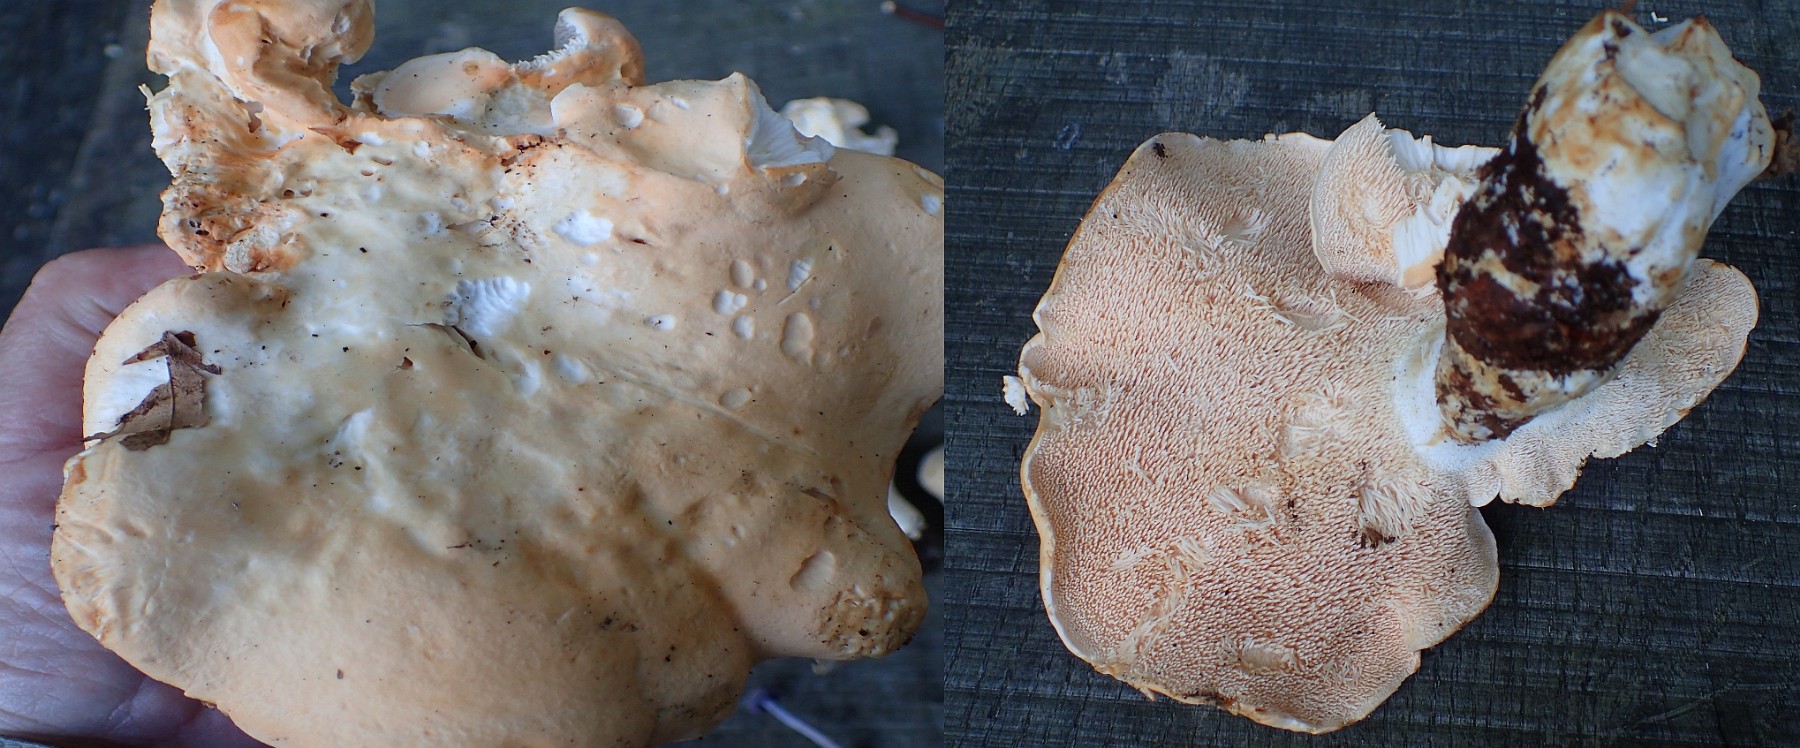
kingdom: Fungi
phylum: Basidiomycota
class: Agaricomycetes
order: Cantharellales
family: Hydnaceae
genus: Hydnum
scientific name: Hydnum repandum
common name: almindelig pigsvamp
